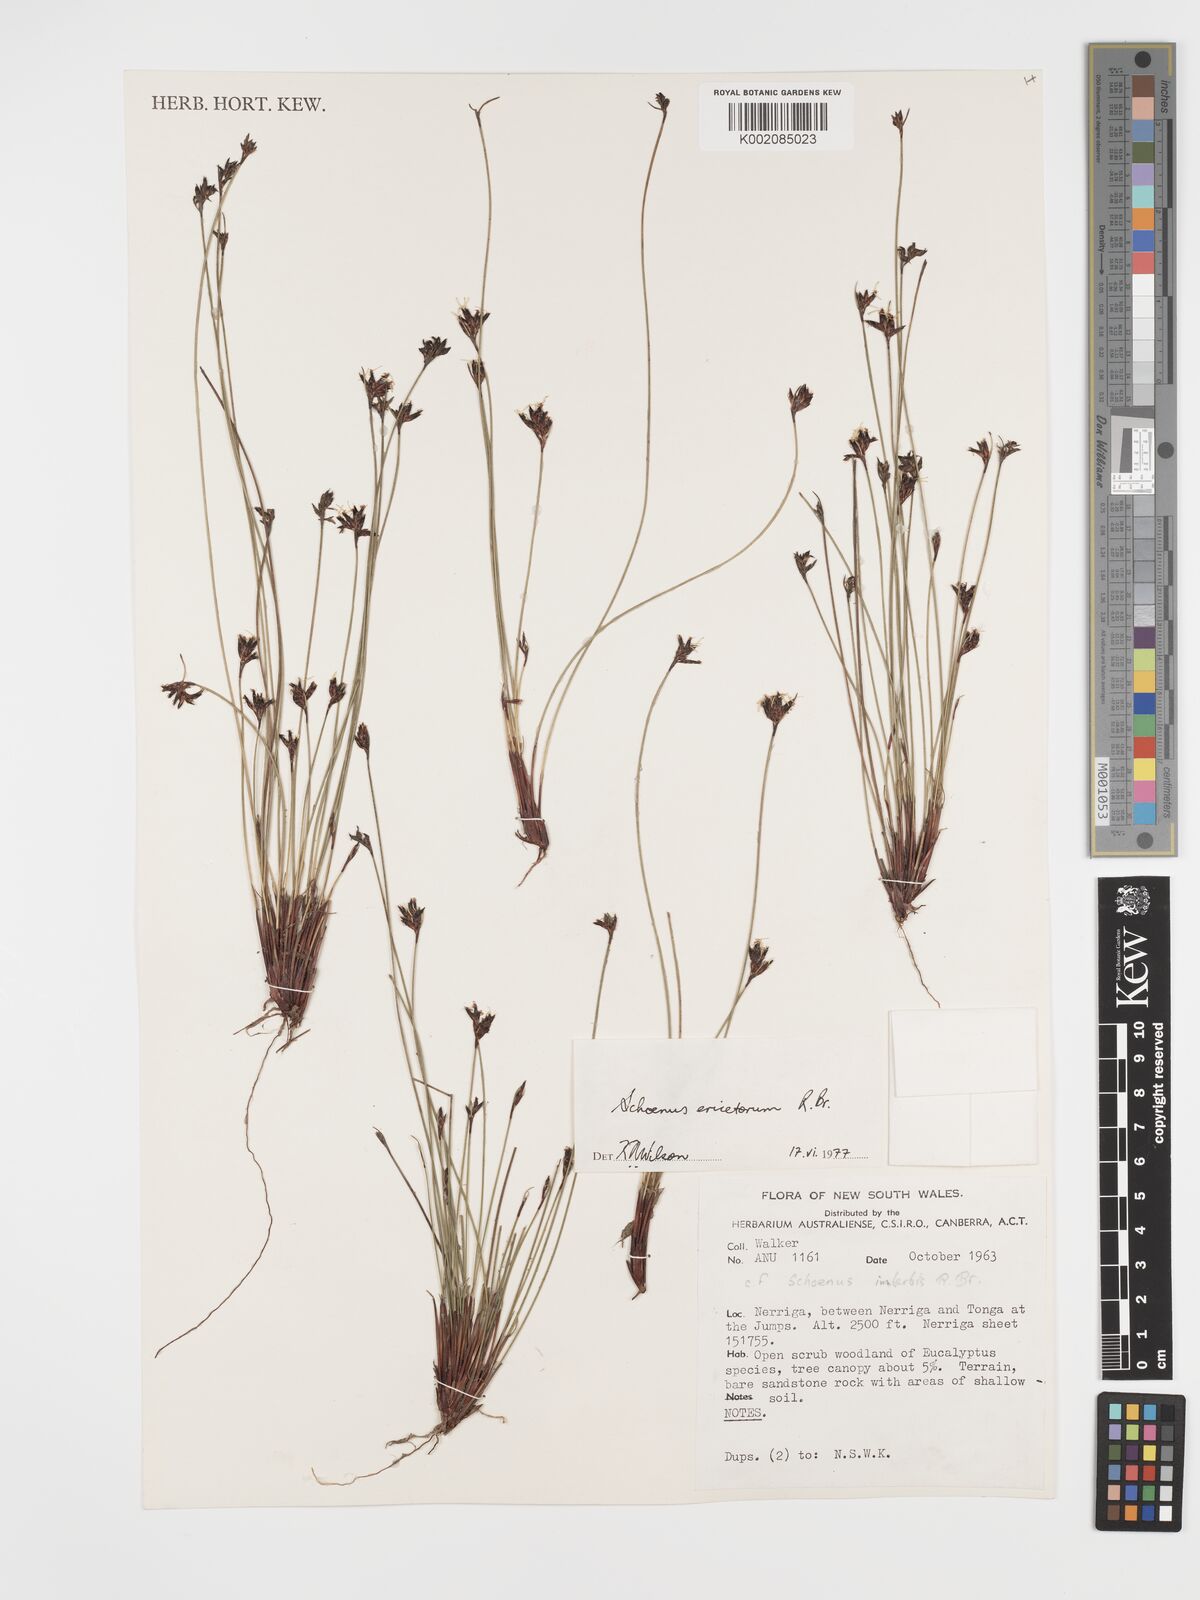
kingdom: Plantae
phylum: Tracheophyta
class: Liliopsida
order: Poales
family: Cyperaceae
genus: Schoenus
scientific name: Schoenus ericetorum
